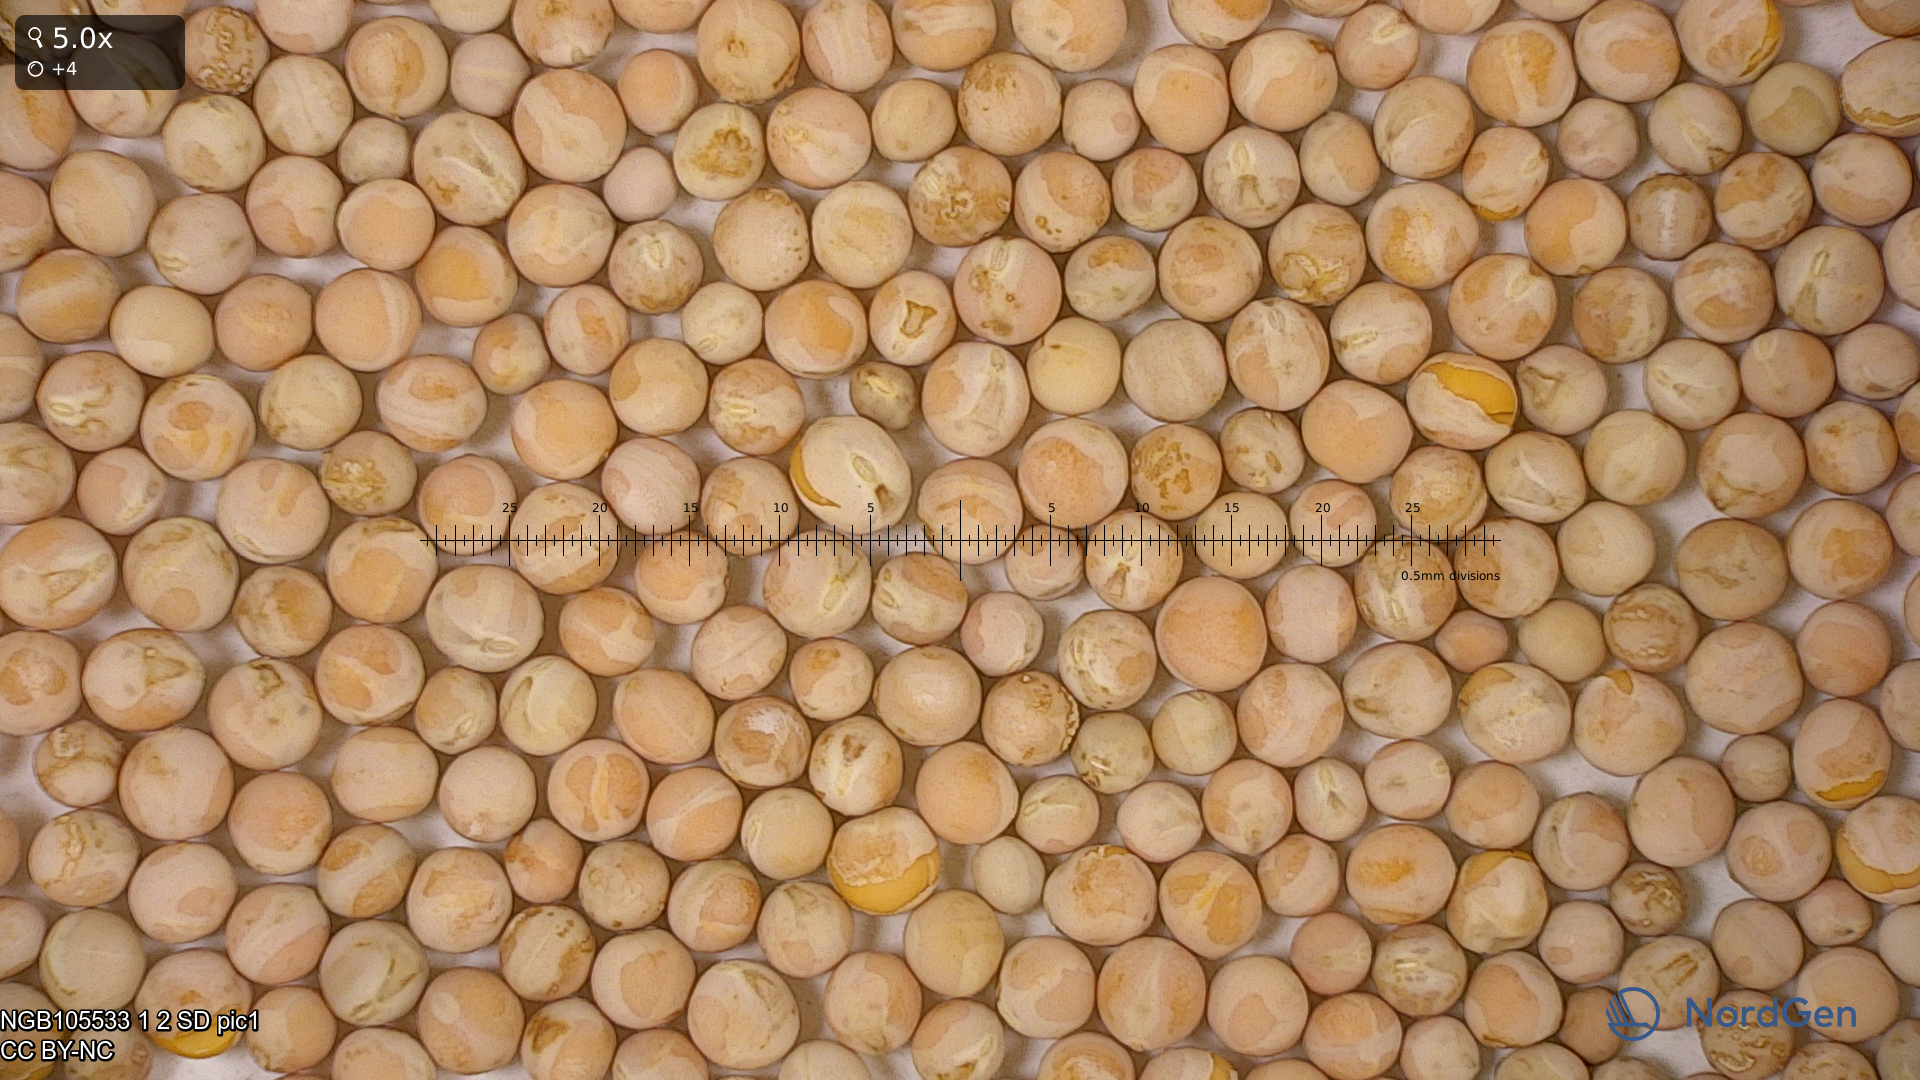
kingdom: Plantae
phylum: Tracheophyta
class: Magnoliopsida
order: Fabales
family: Fabaceae
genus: Lathyrus
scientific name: Lathyrus oleraceus
